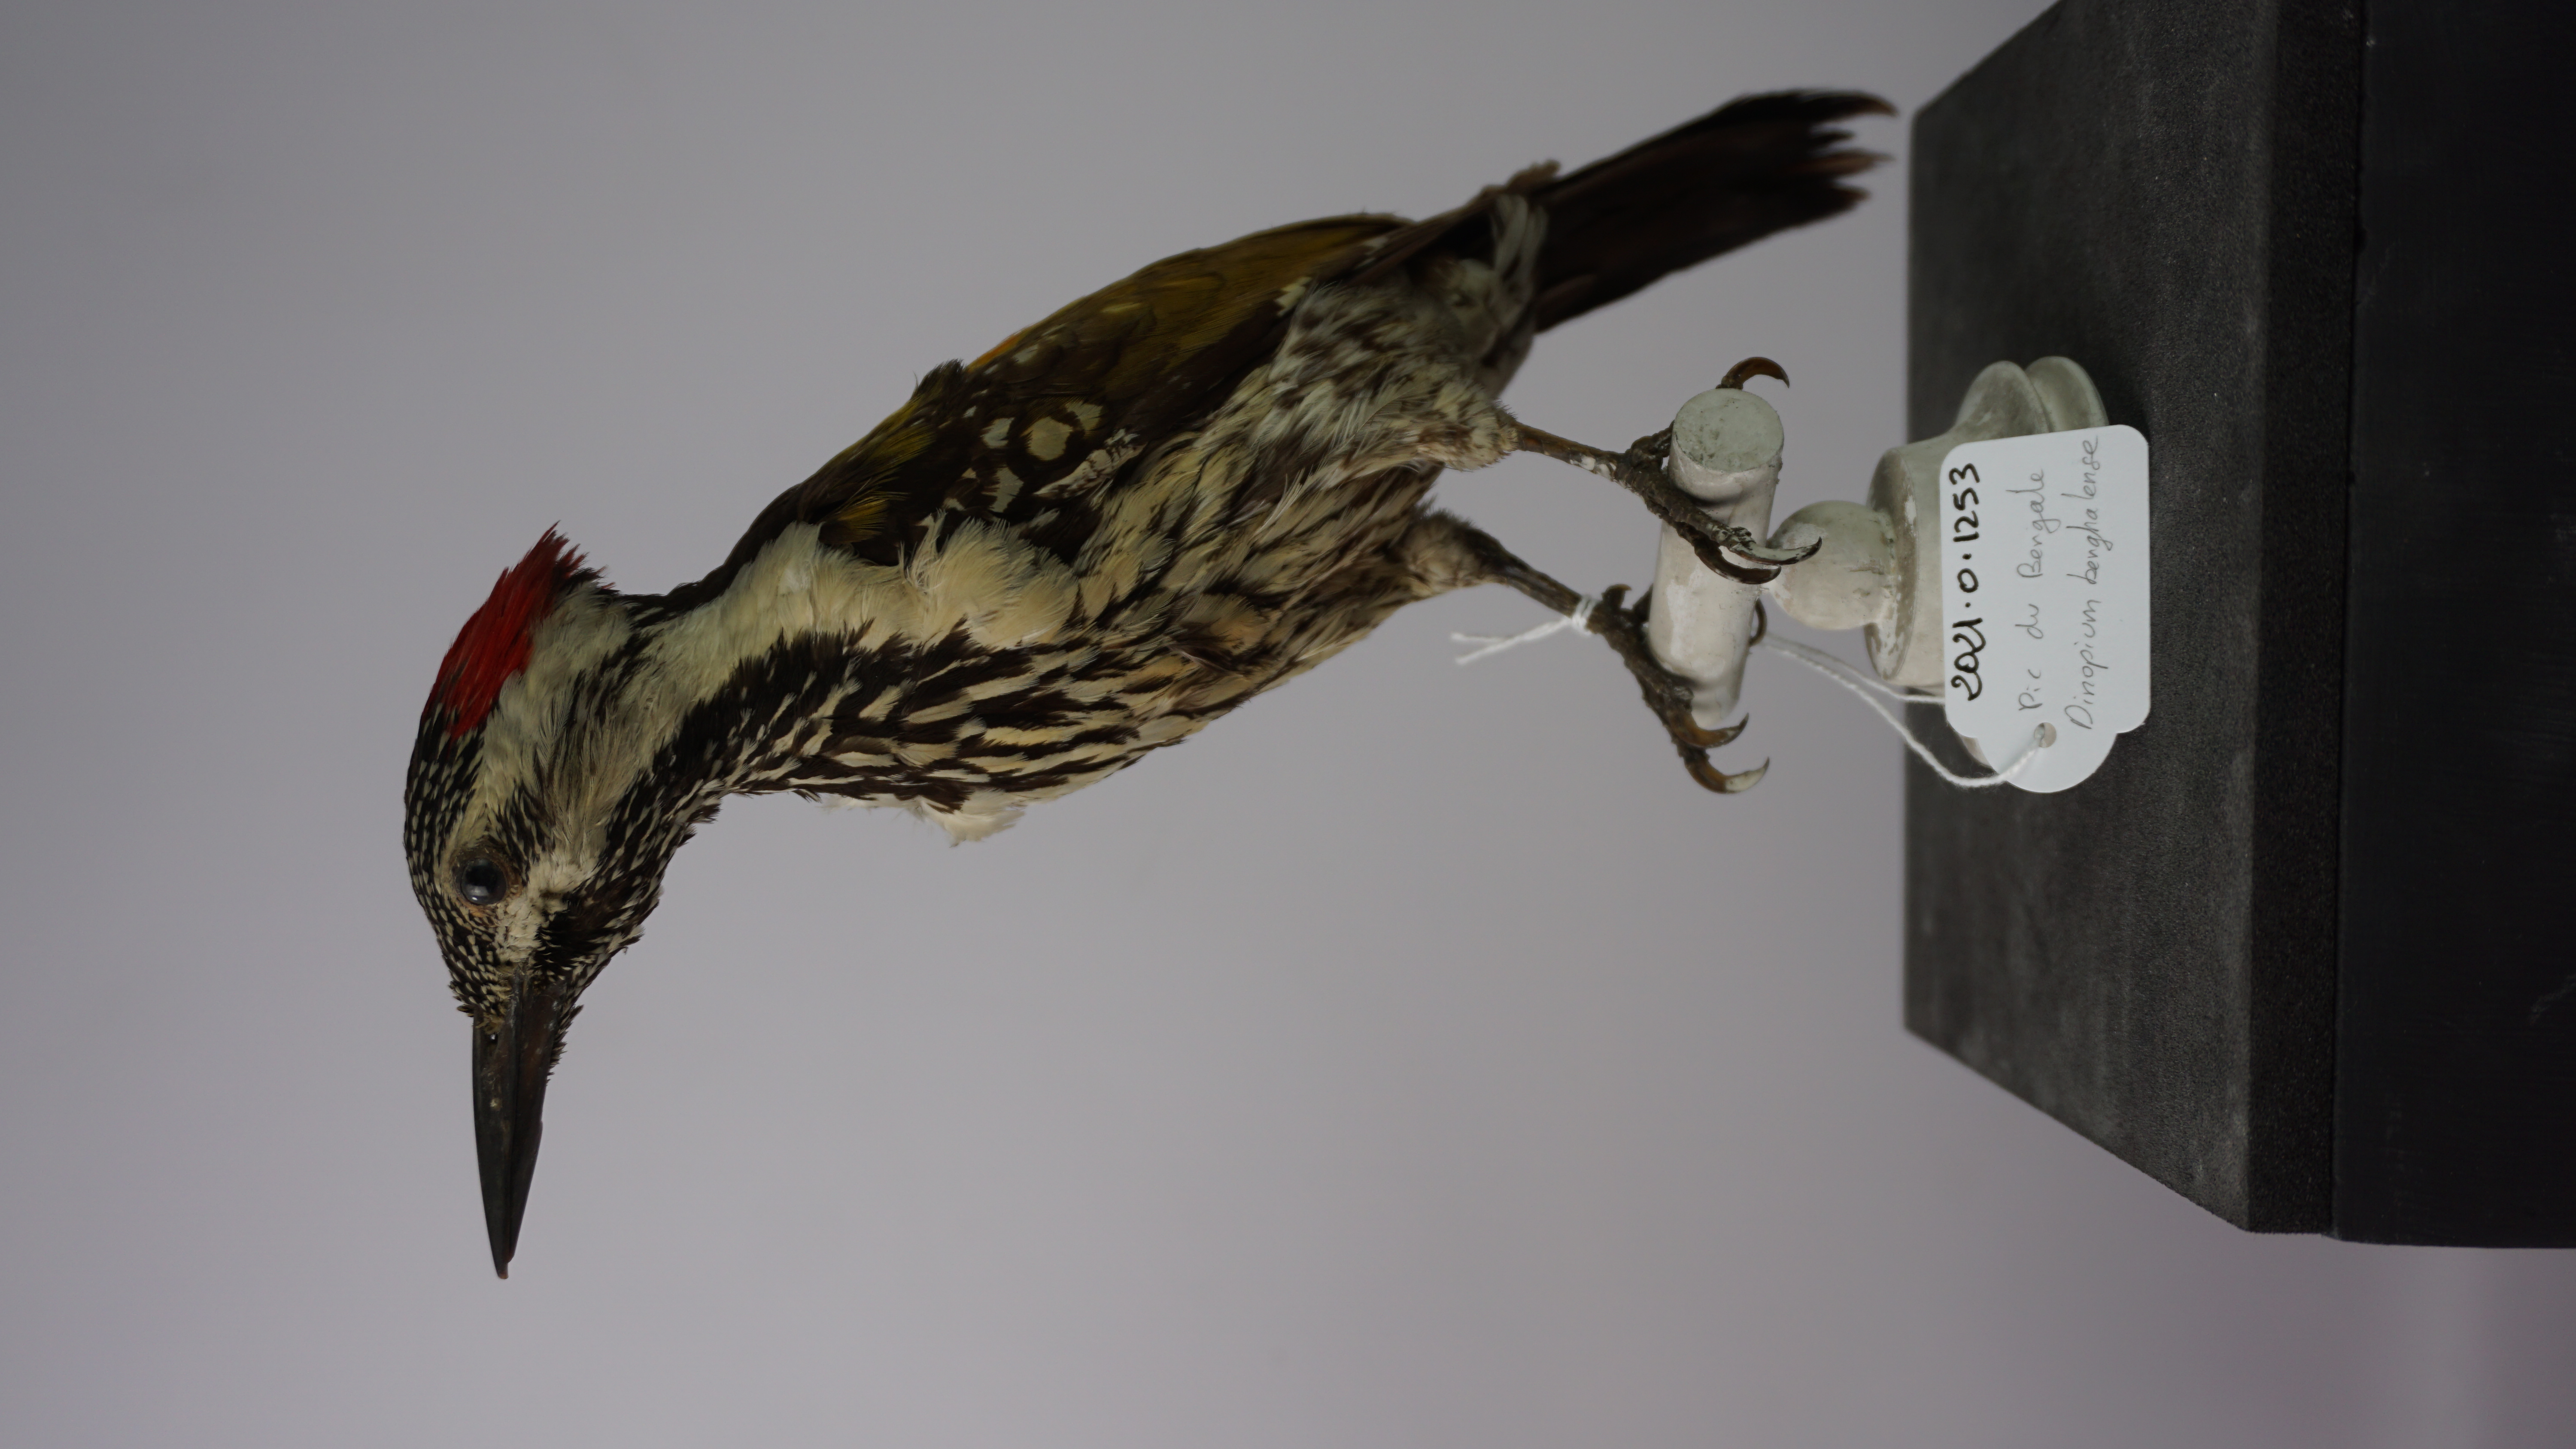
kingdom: Animalia
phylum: Chordata
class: Aves
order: Piciformes
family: Picidae
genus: Dinopium
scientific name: Dinopium benghalense
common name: Black-rumped flameback
